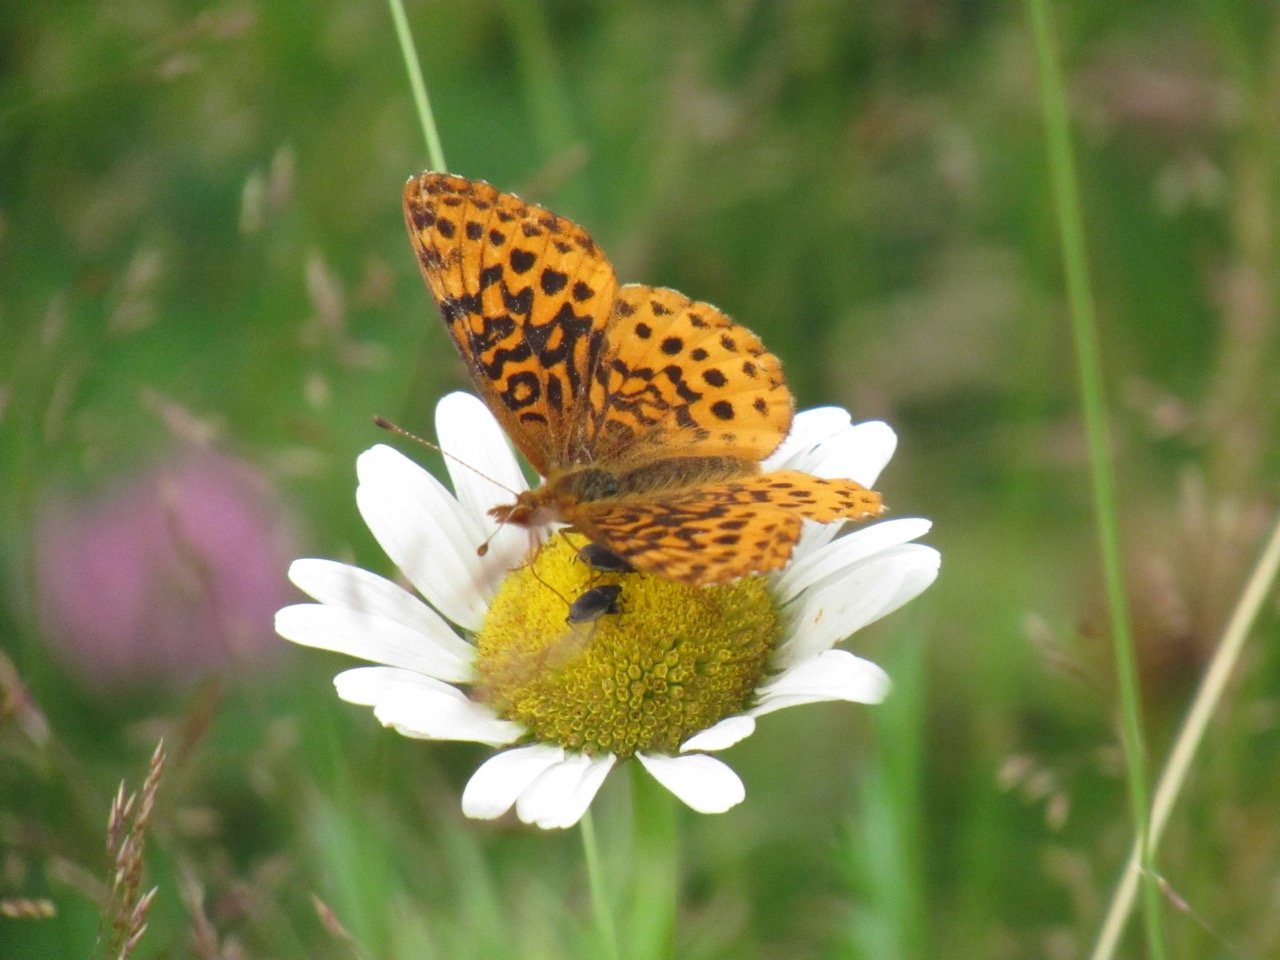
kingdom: Animalia
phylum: Arthropoda
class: Insecta
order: Lepidoptera
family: Nymphalidae
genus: Clossiana
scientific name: Clossiana toddi
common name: Meadow Fritillary
